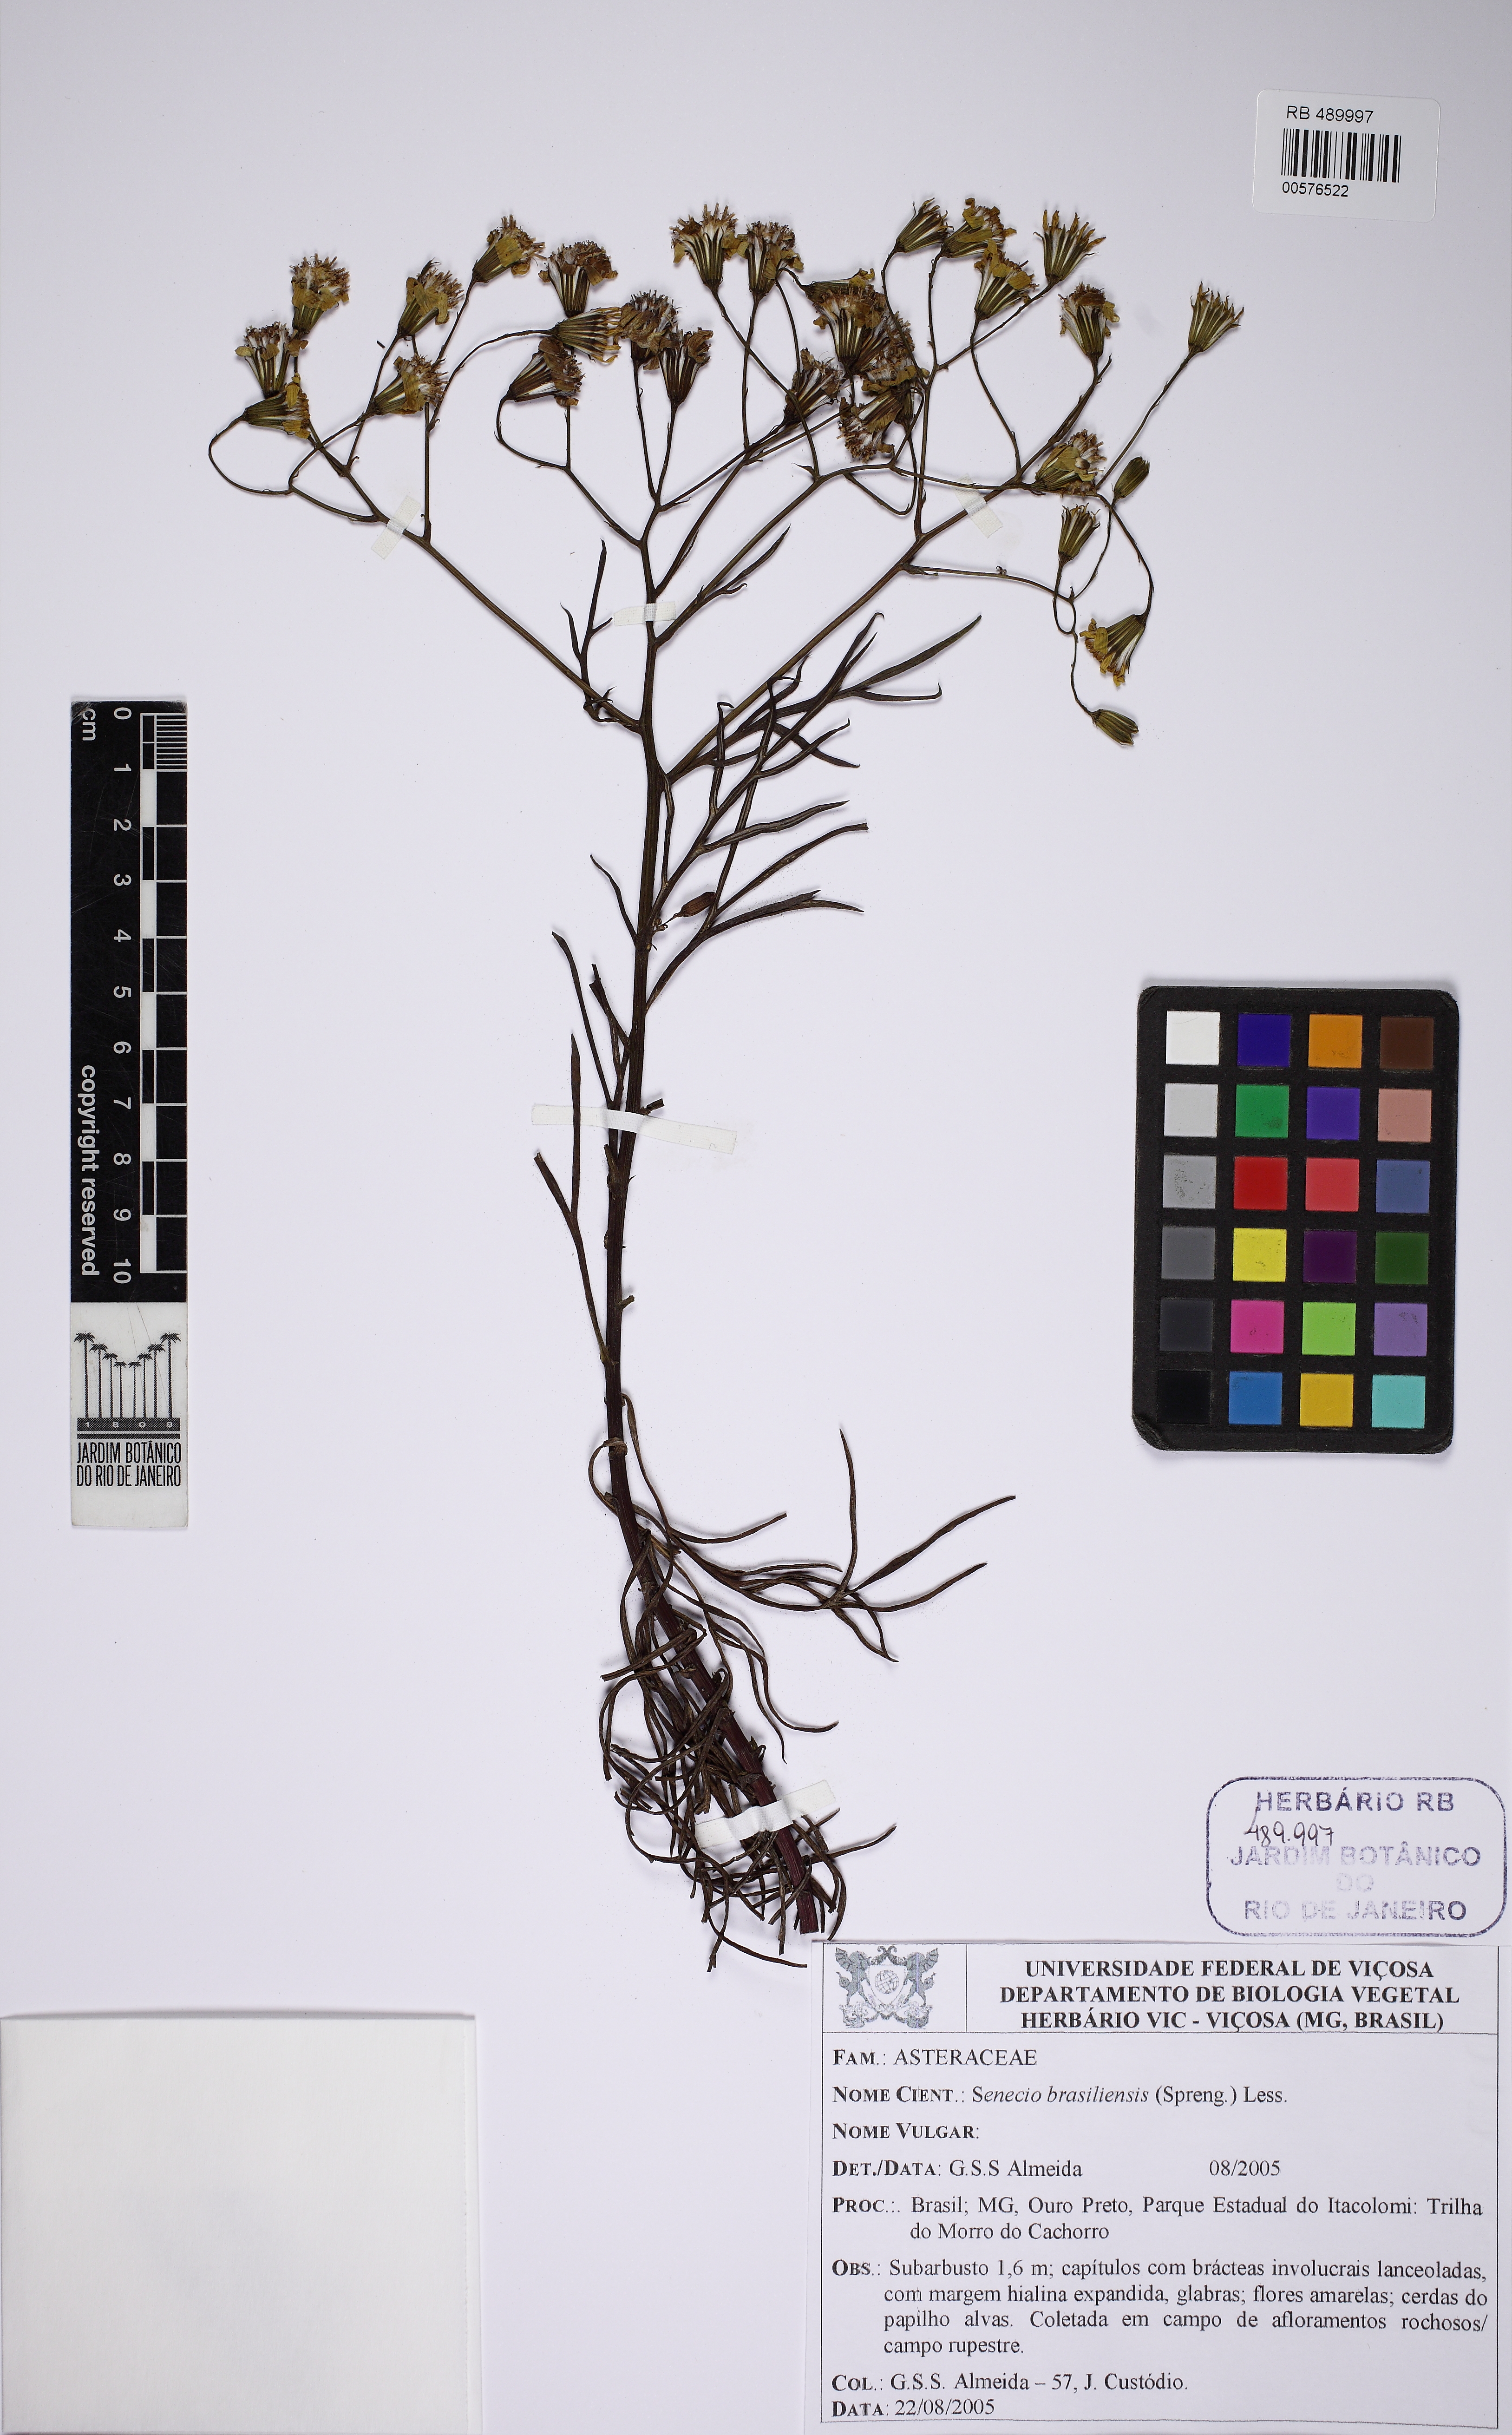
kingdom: Plantae
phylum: Tracheophyta
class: Magnoliopsida
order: Asterales
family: Asteraceae
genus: Senecio
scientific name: Senecio brasiliensis
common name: Hemp-leaf ragwort
